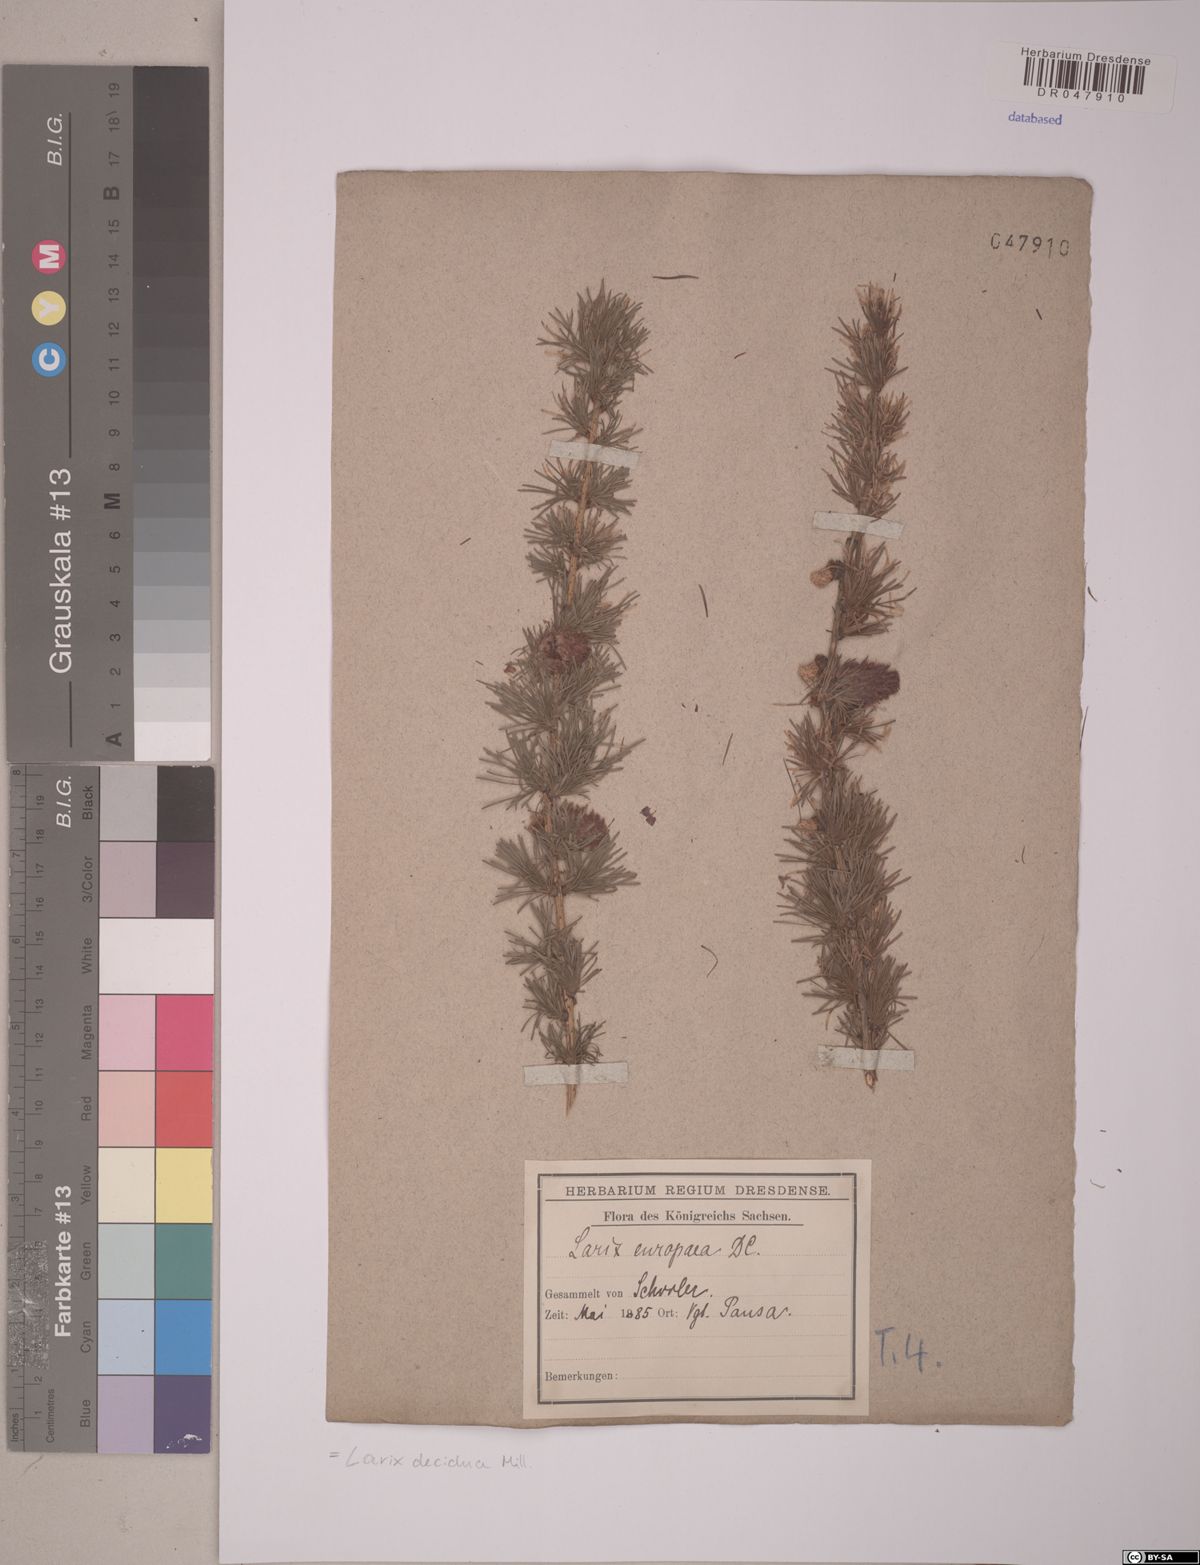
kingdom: Plantae
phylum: Tracheophyta
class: Pinopsida
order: Pinales
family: Pinaceae
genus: Larix
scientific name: Larix decidua
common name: European larch
